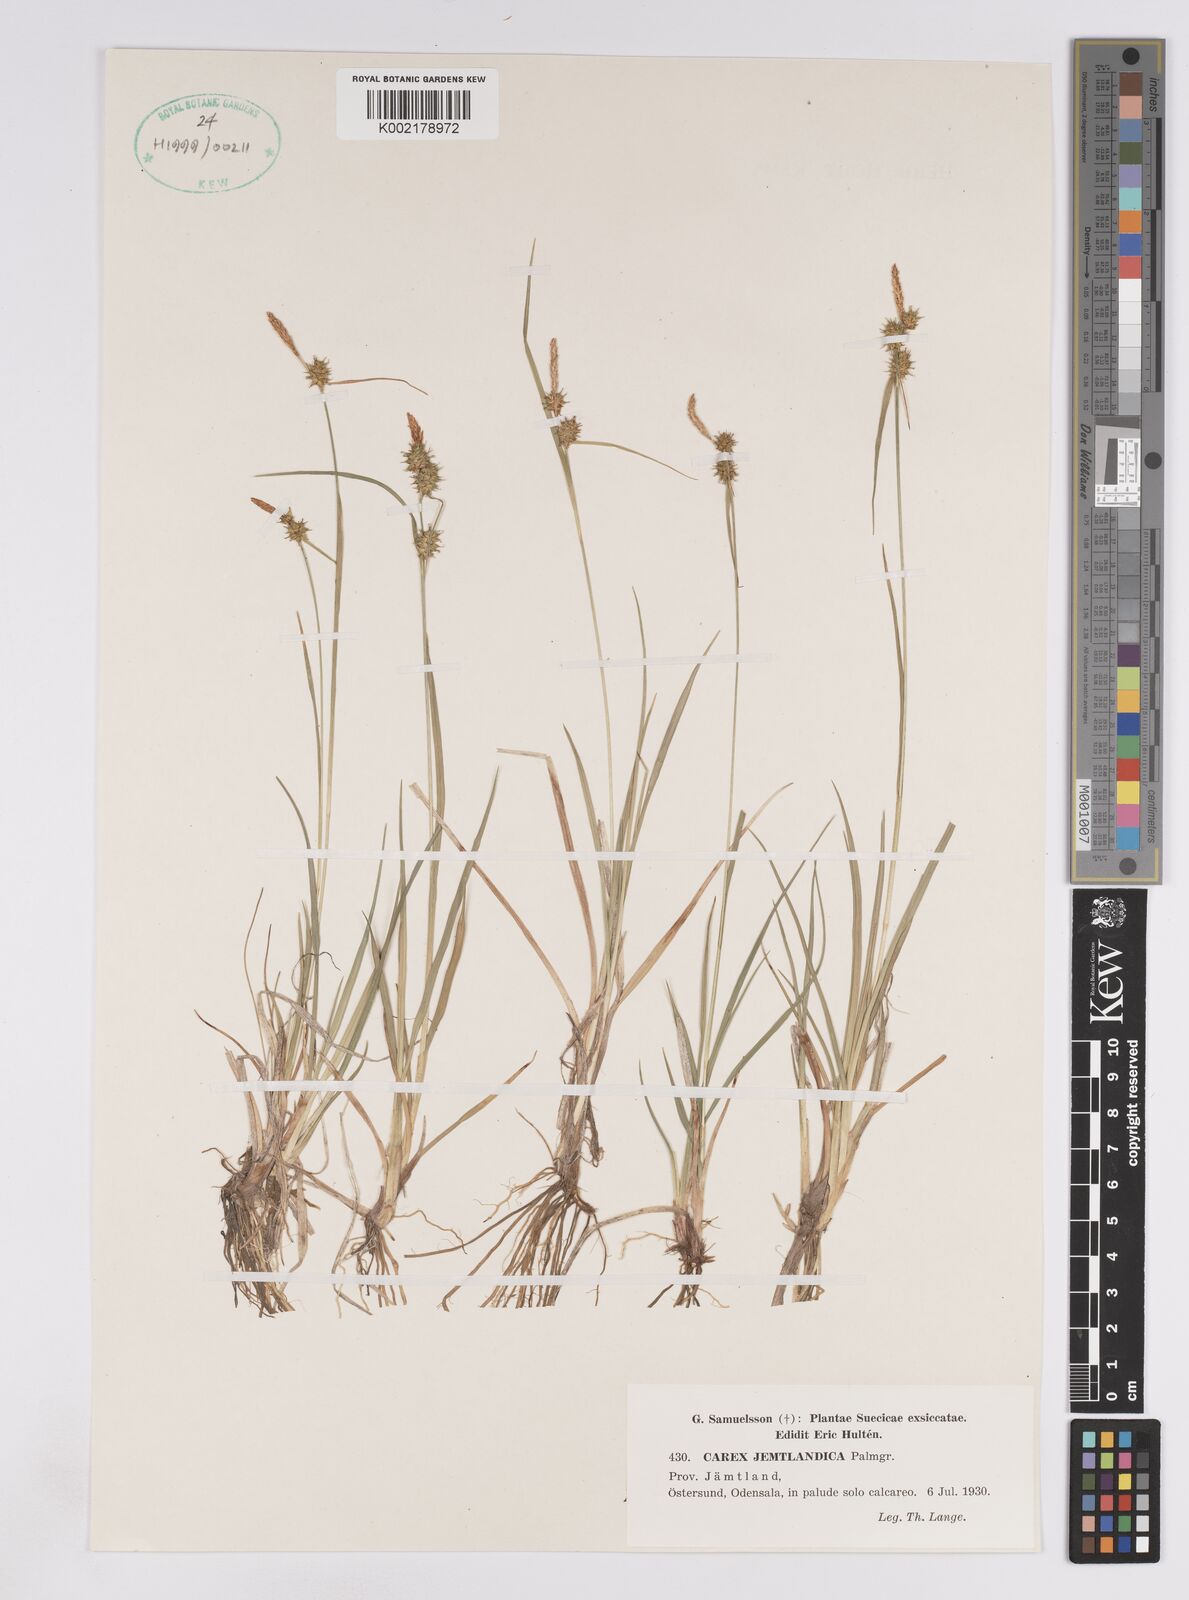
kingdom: Plantae
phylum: Tracheophyta
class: Liliopsida
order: Poales
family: Cyperaceae
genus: Carex
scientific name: Carex lepidocarpa
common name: Long-stalked yellow-sedge
